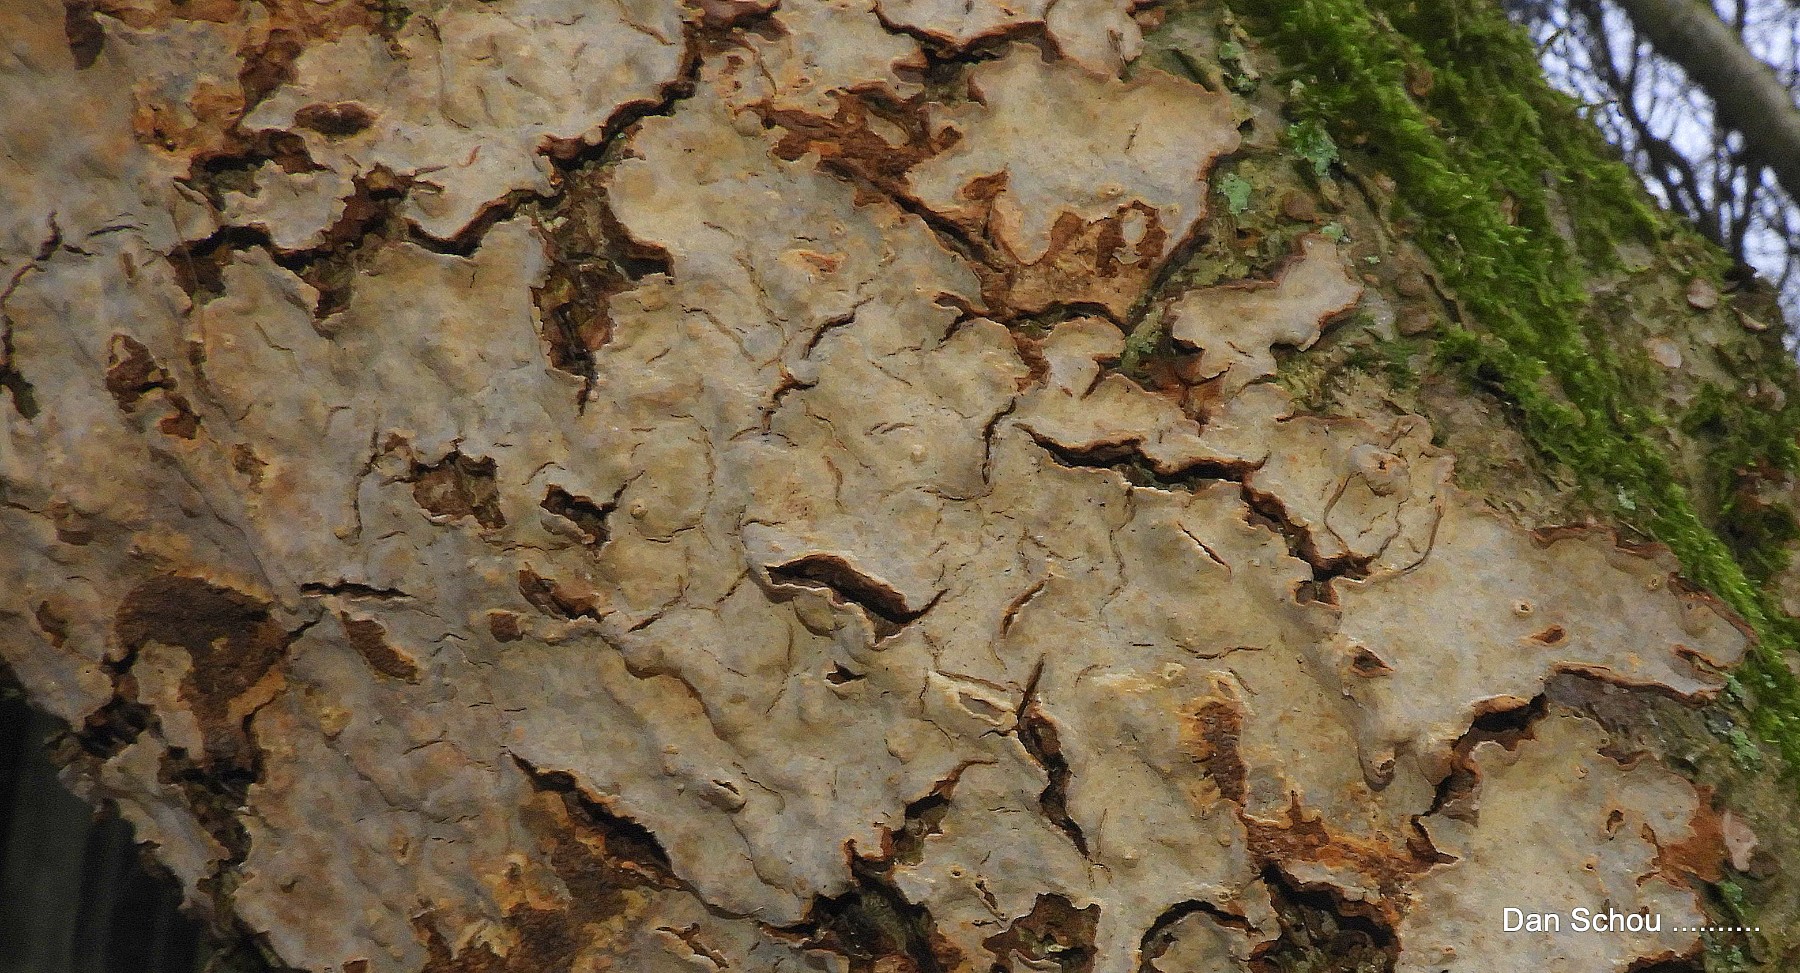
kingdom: Fungi
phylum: Basidiomycota
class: Agaricomycetes
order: Russulales
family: Stereaceae
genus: Stereum
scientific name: Stereum rugosum
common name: rynket lædersvamp
